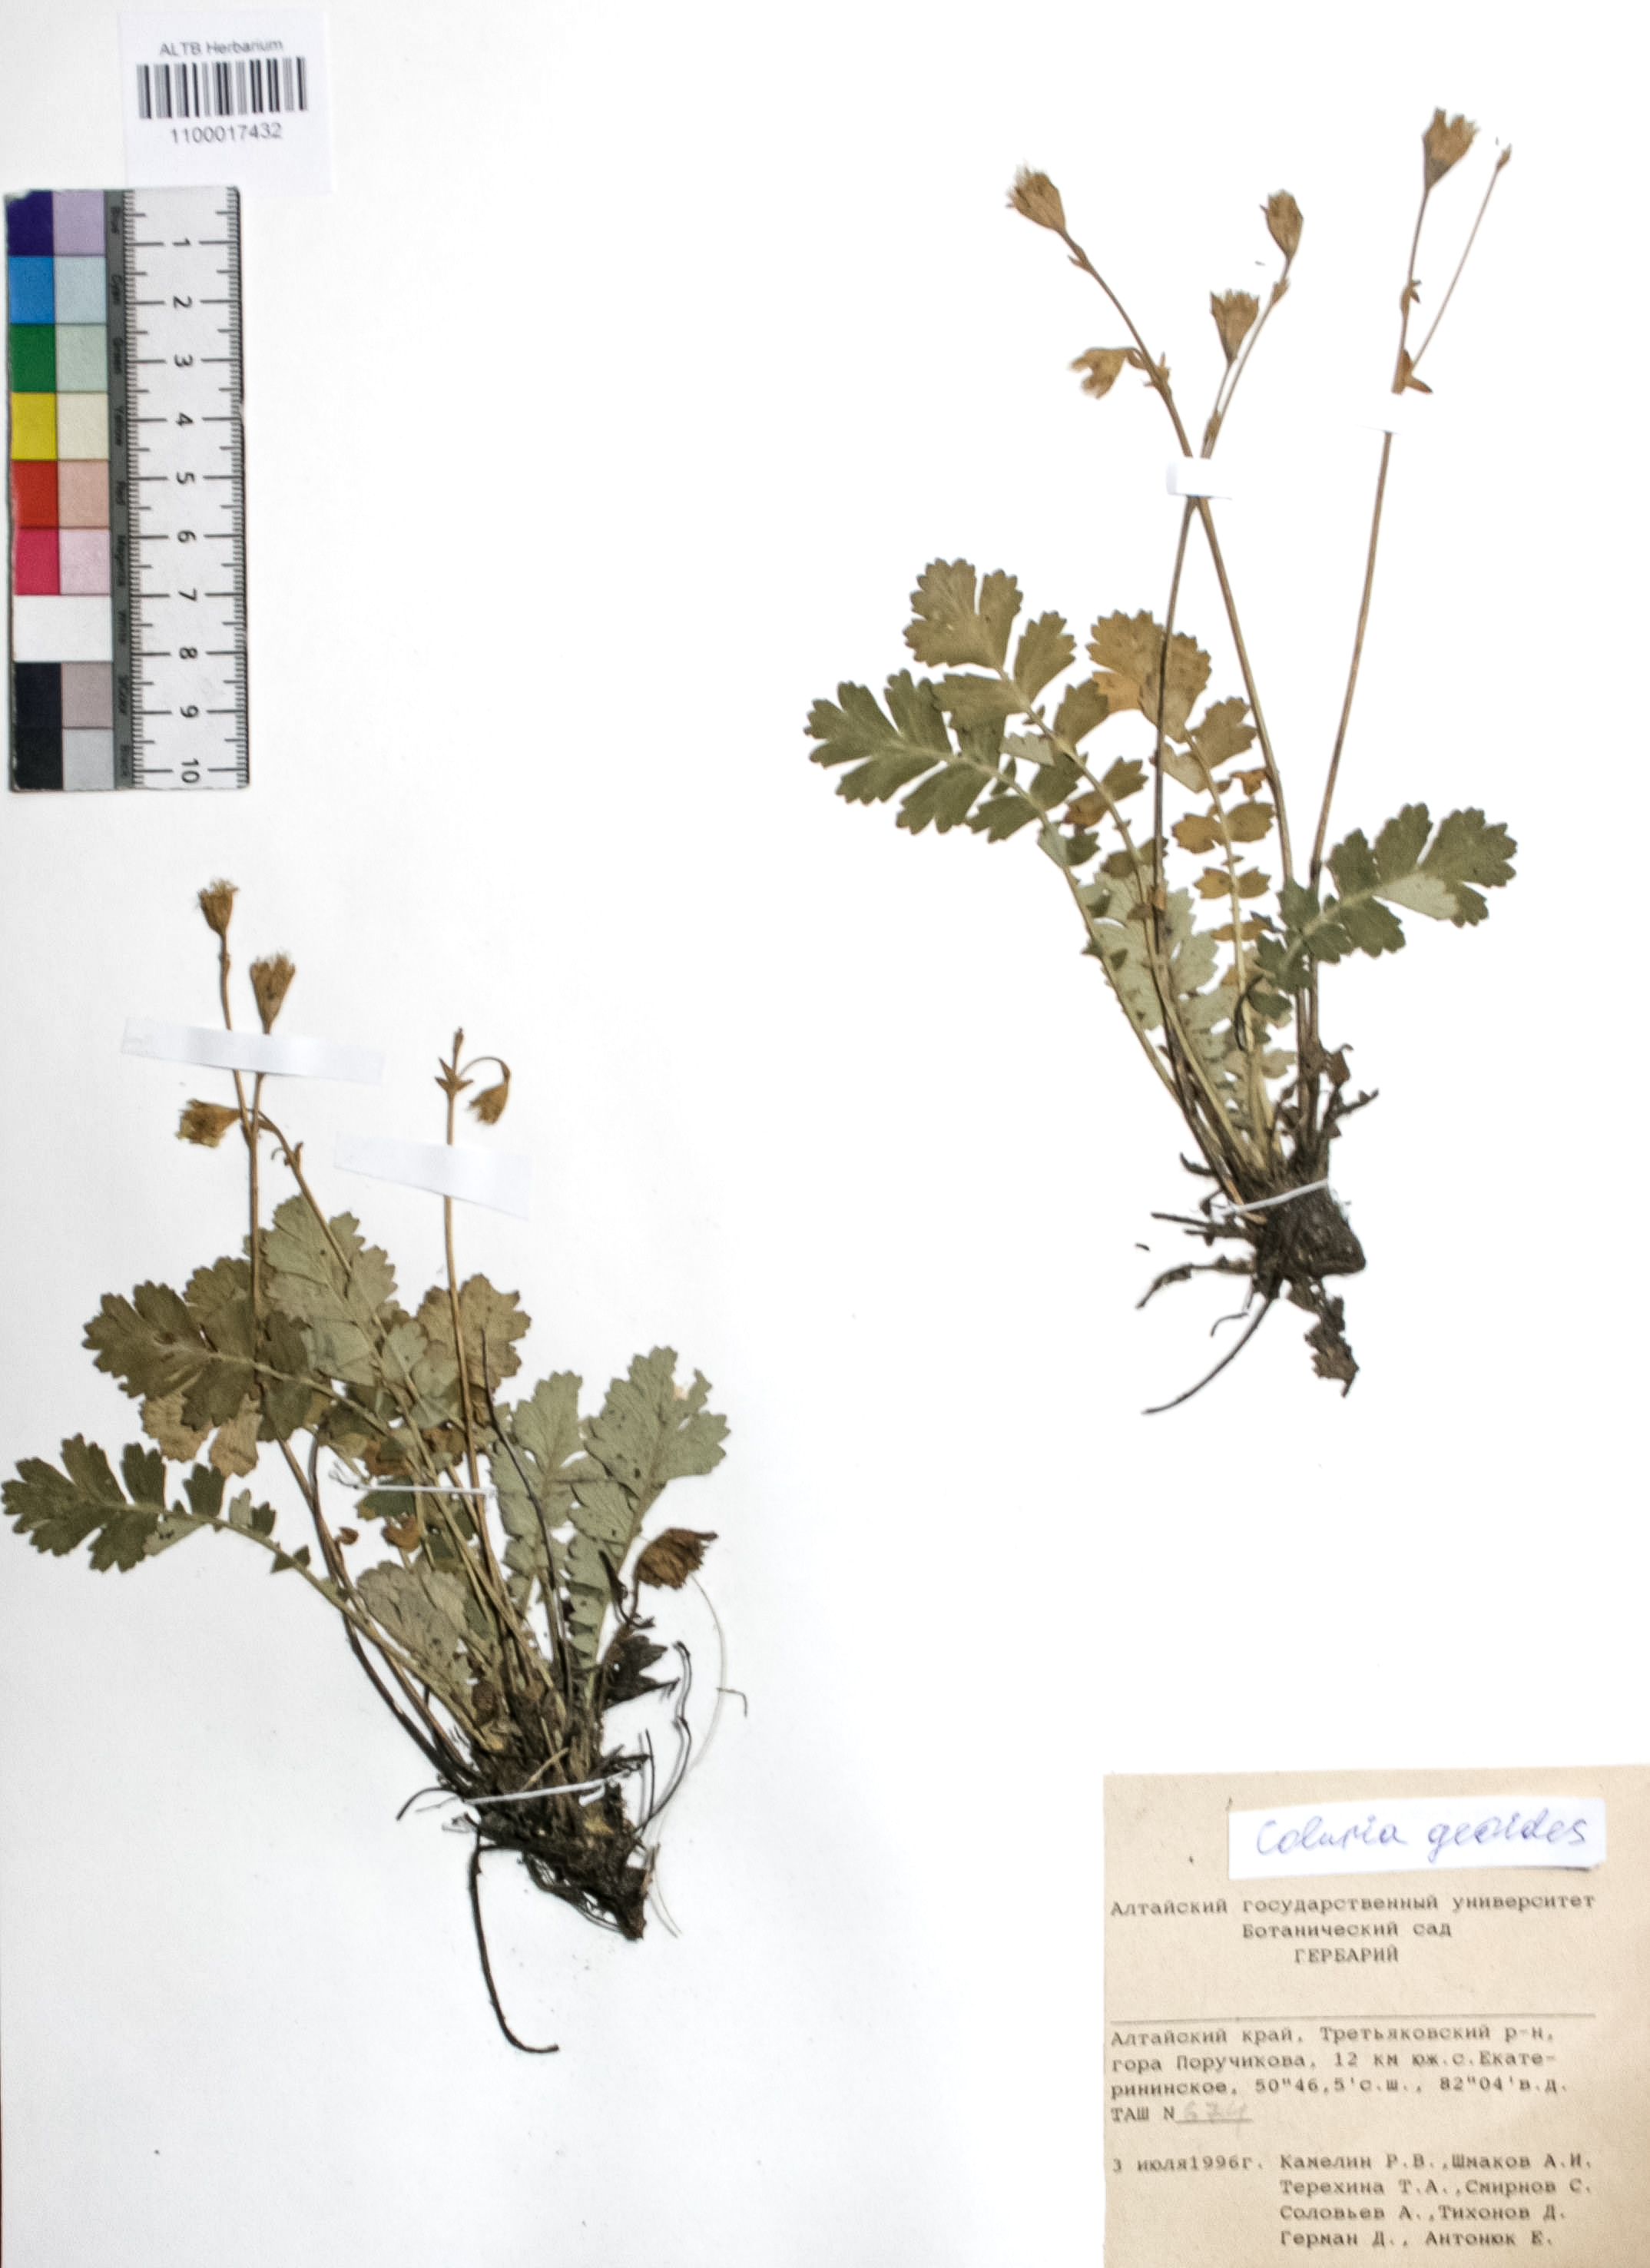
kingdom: Plantae
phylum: Tracheophyta
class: Magnoliopsida
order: Rosales
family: Rosaceae
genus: Geum
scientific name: Geum geoides
